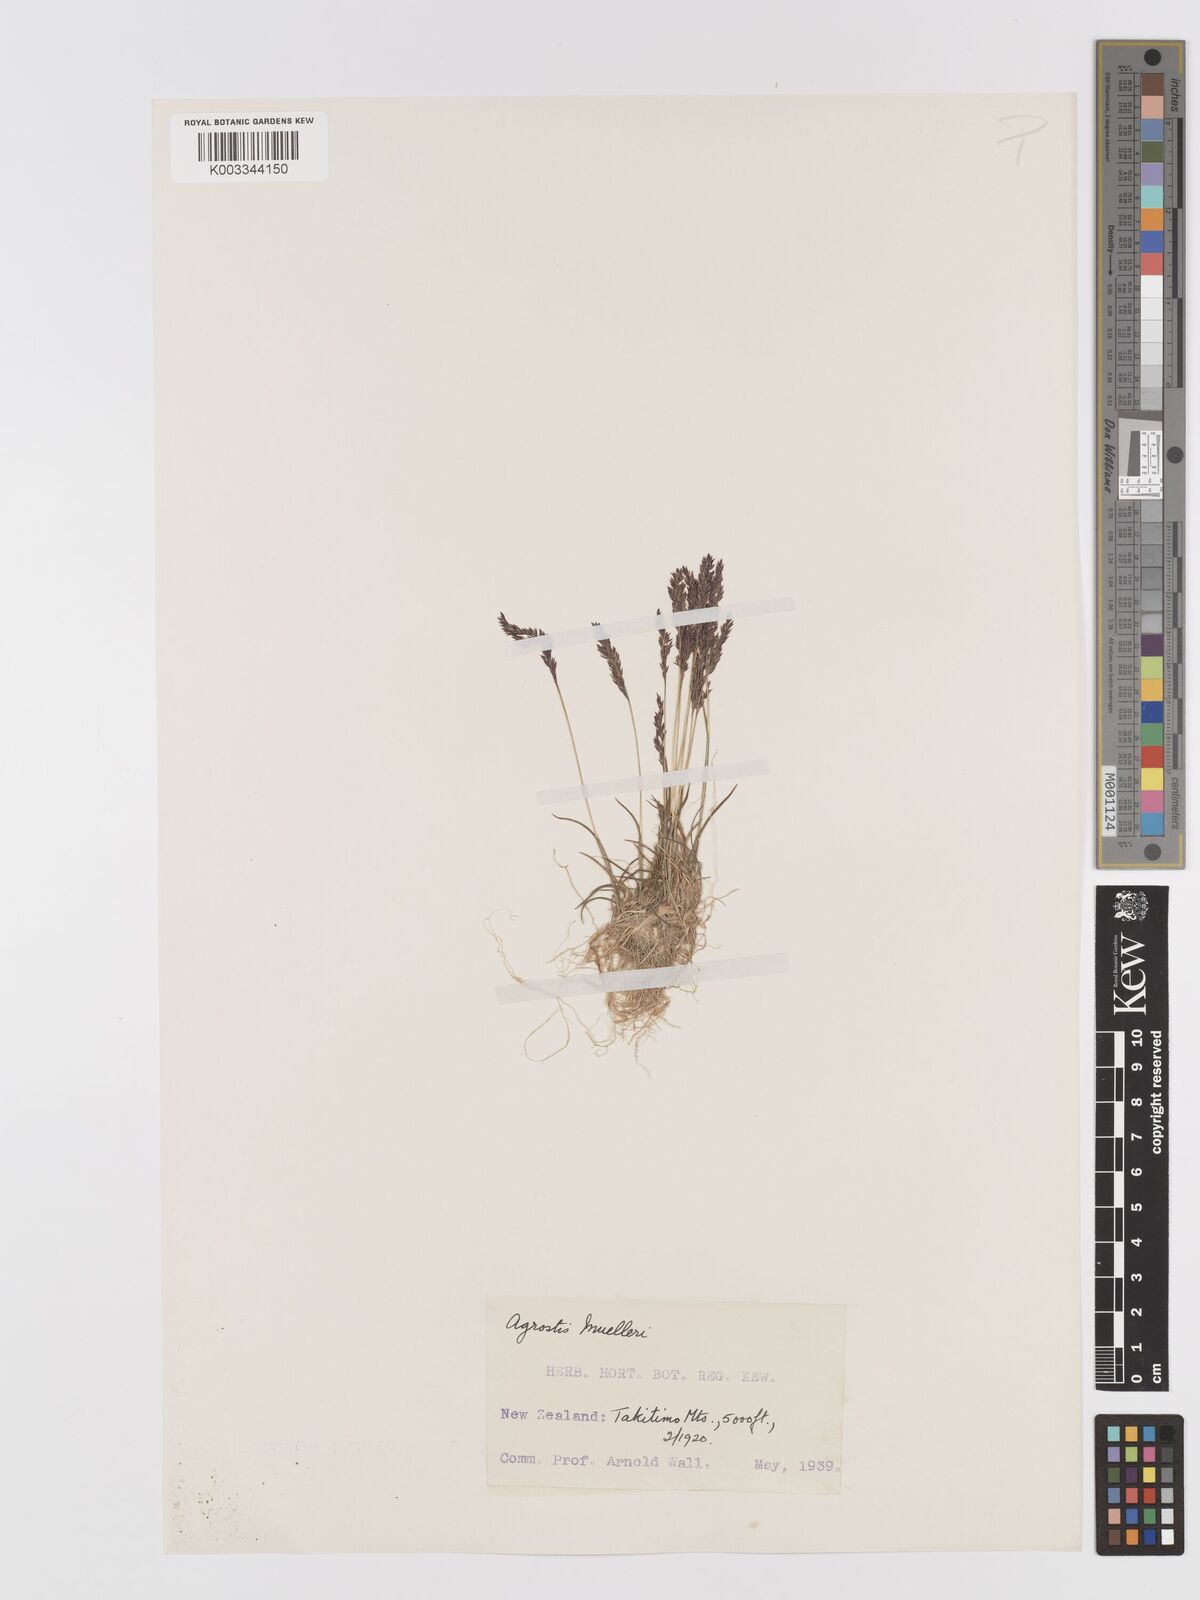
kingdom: Plantae
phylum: Tracheophyta
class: Liliopsida
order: Poales
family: Poaceae
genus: Agrostis
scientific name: Agrostis muelleriana
